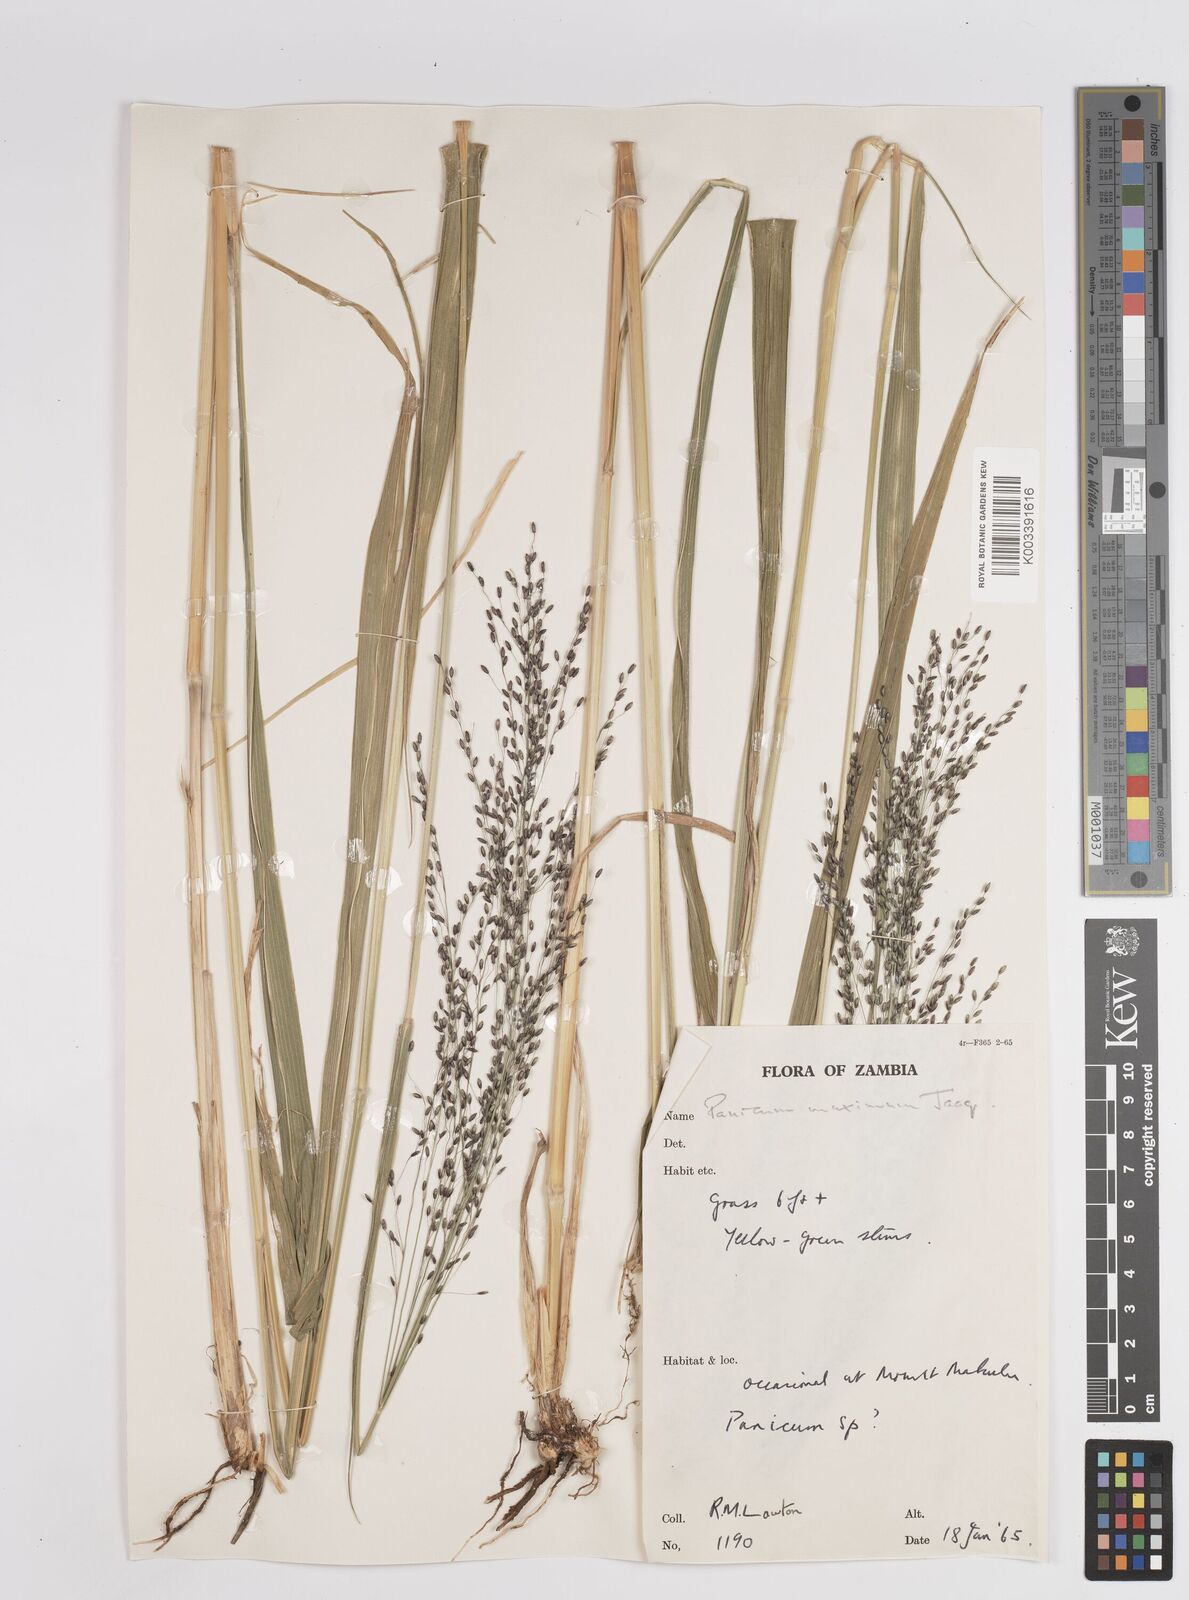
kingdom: Plantae
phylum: Tracheophyta
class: Liliopsida
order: Poales
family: Poaceae
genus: Megathyrsus
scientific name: Megathyrsus maximus
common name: Guineagrass
